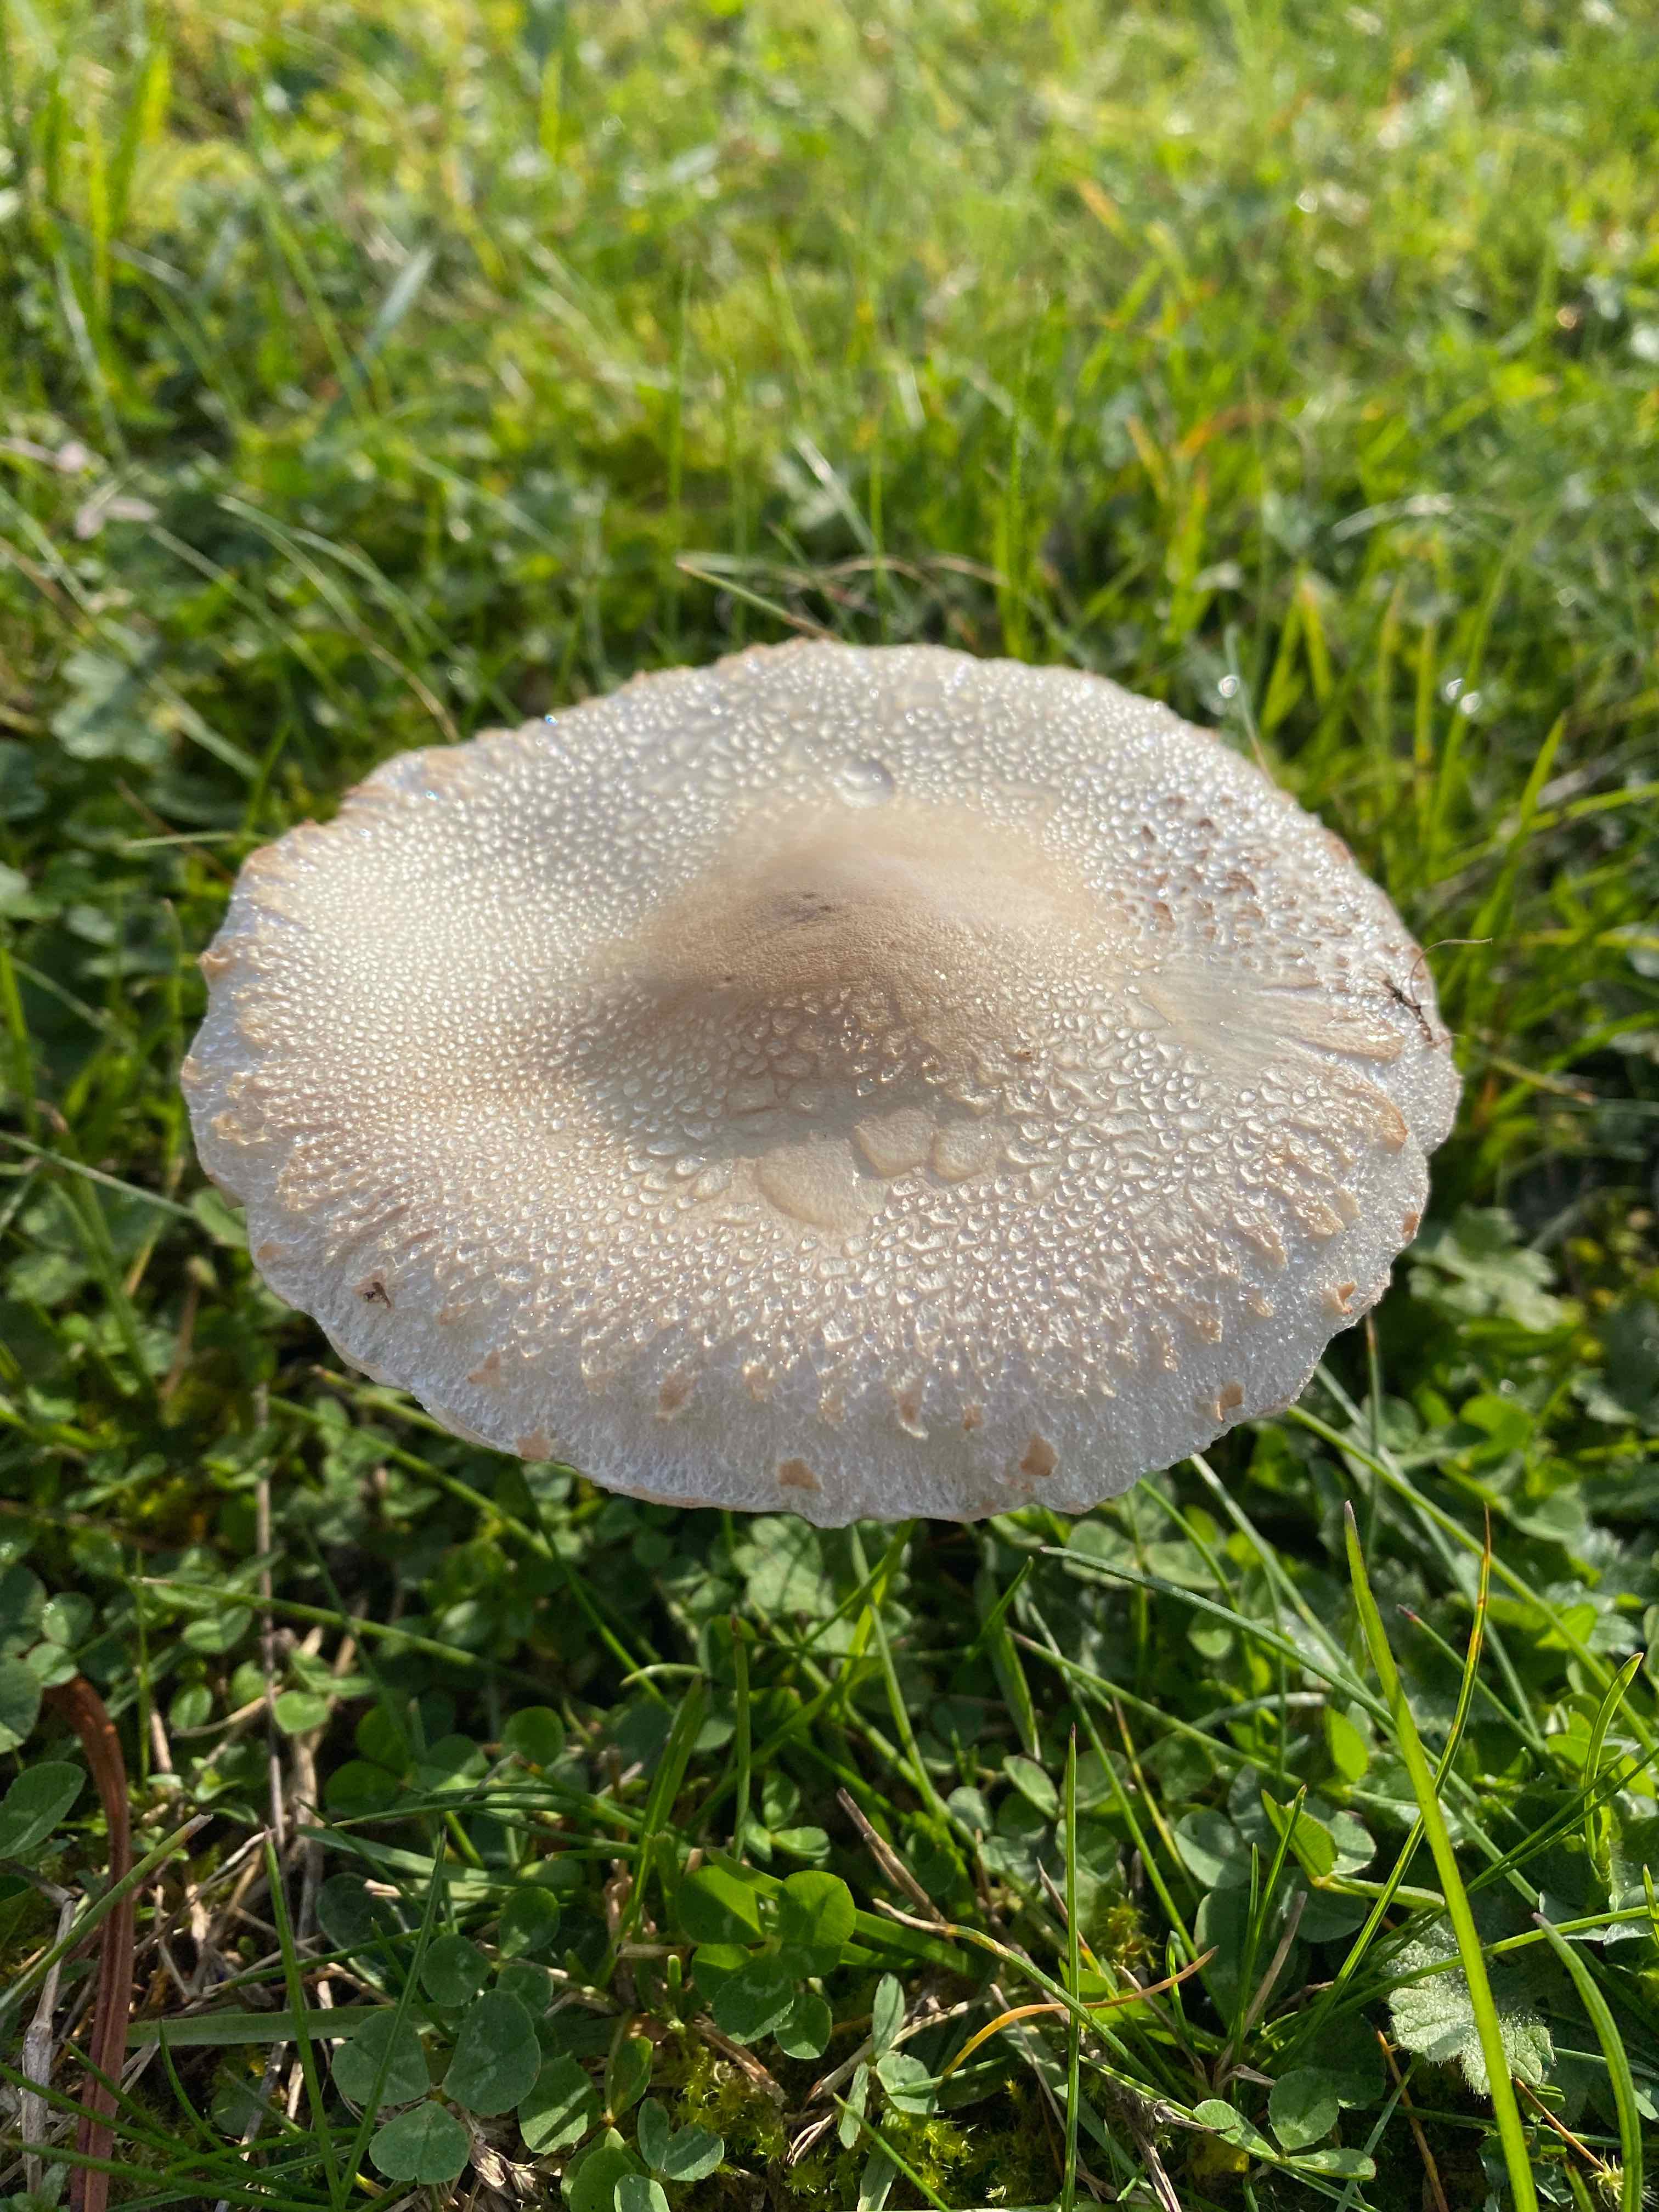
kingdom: Fungi
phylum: Basidiomycota
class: Agaricomycetes
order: Agaricales
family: Agaricaceae
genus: Macrolepiota
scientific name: Macrolepiota excoriata
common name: mark-kæmpeparasolhat
